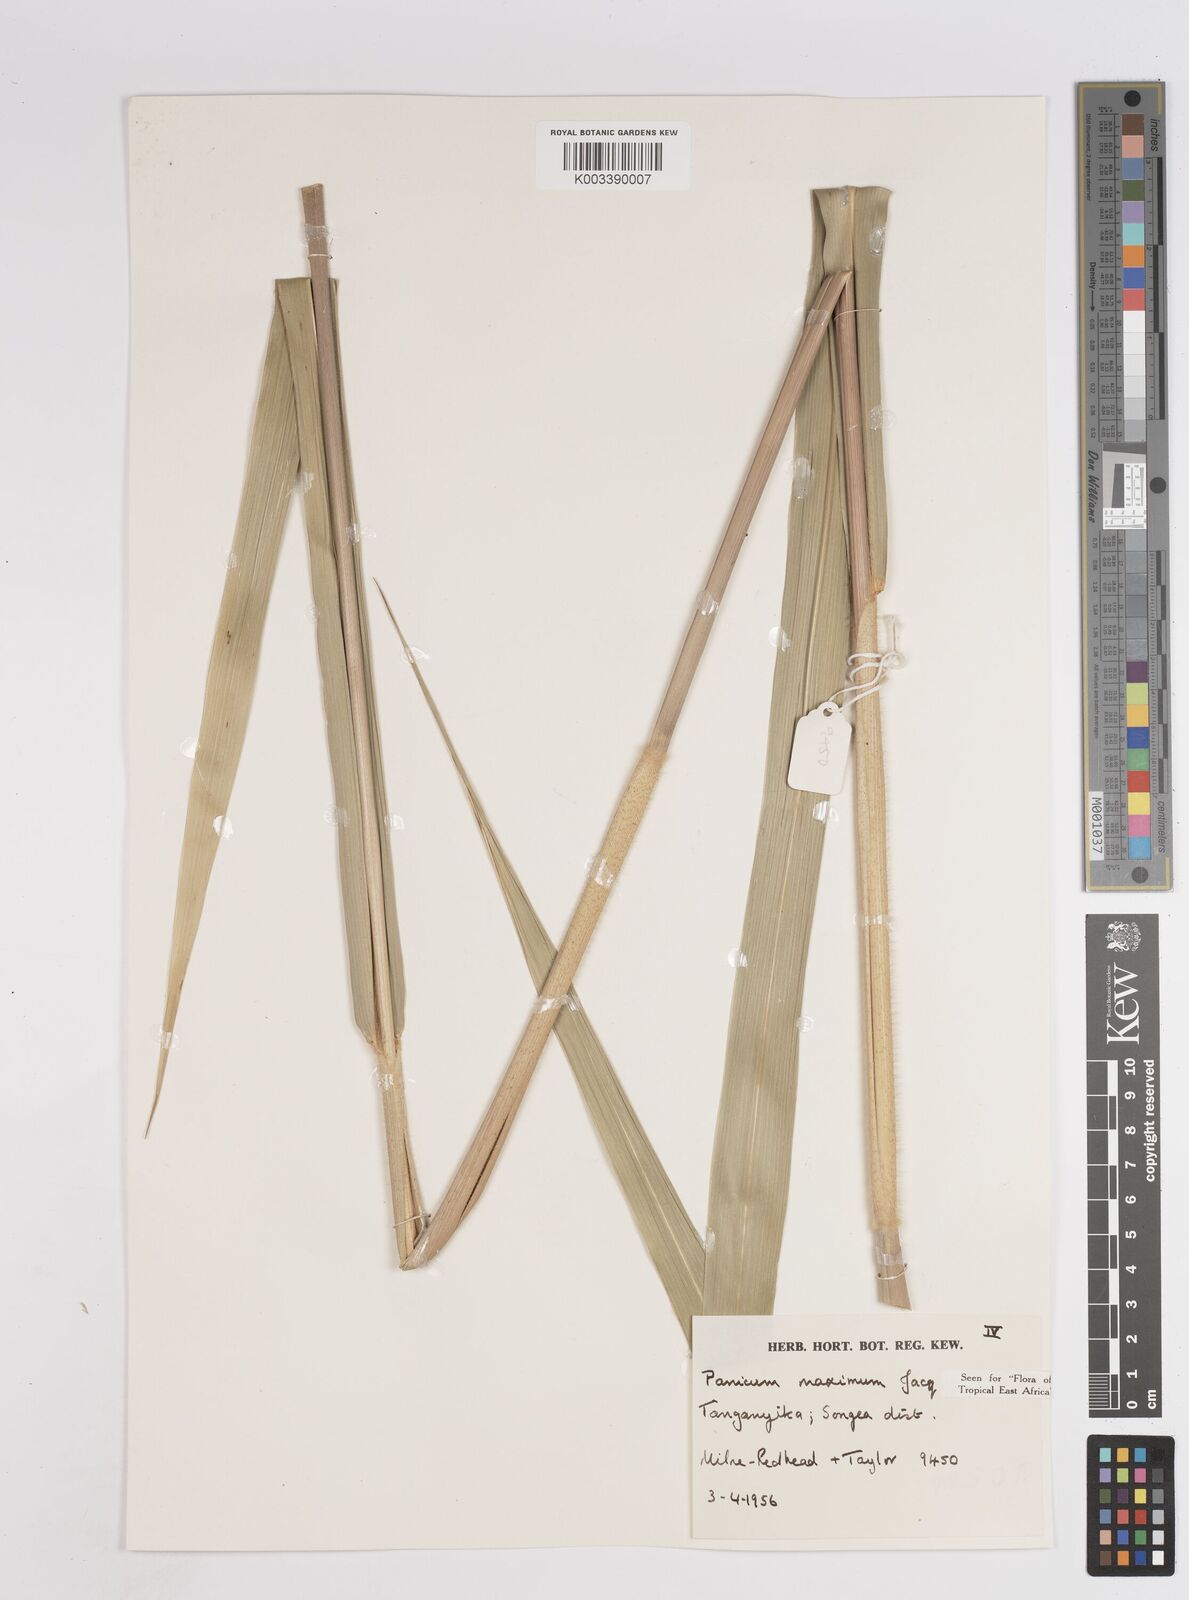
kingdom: Plantae
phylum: Tracheophyta
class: Liliopsida
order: Poales
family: Poaceae
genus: Megathyrsus
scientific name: Megathyrsus maximus
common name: Guineagrass
